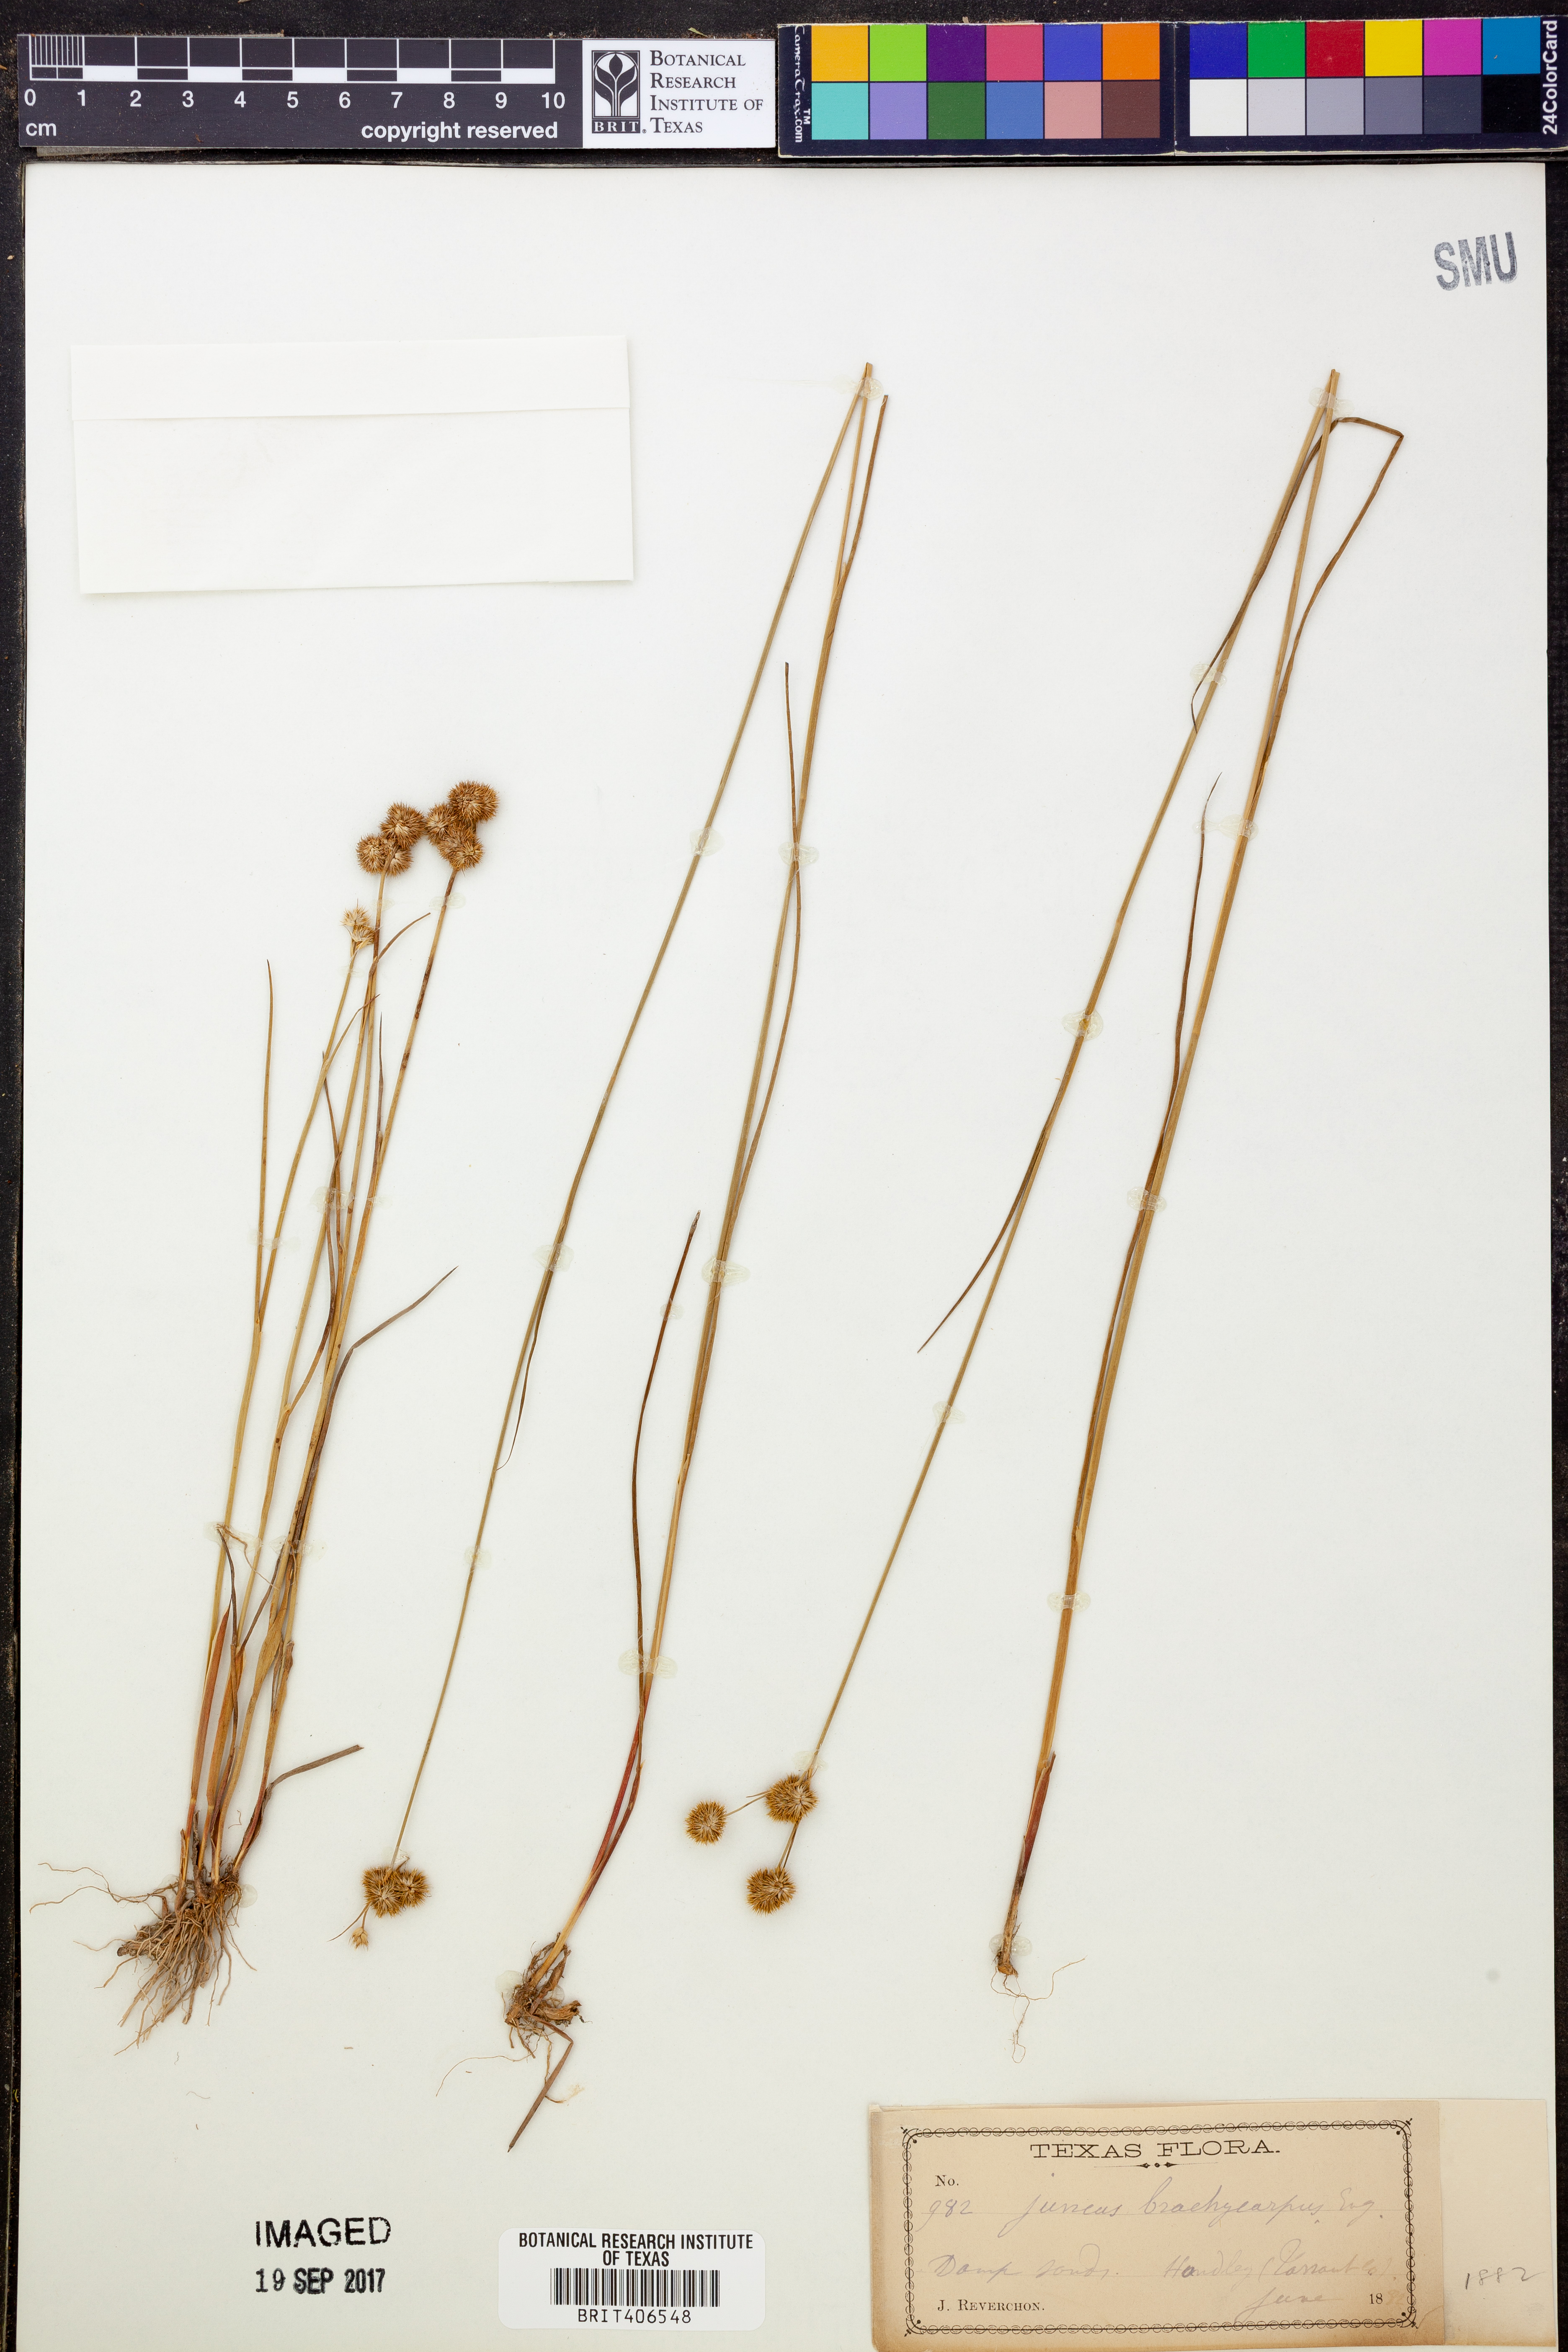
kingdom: Plantae
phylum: Tracheophyta
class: Liliopsida
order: Poales
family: Juncaceae
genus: Juncus
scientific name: Juncus brachycarpus
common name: Shore rush
